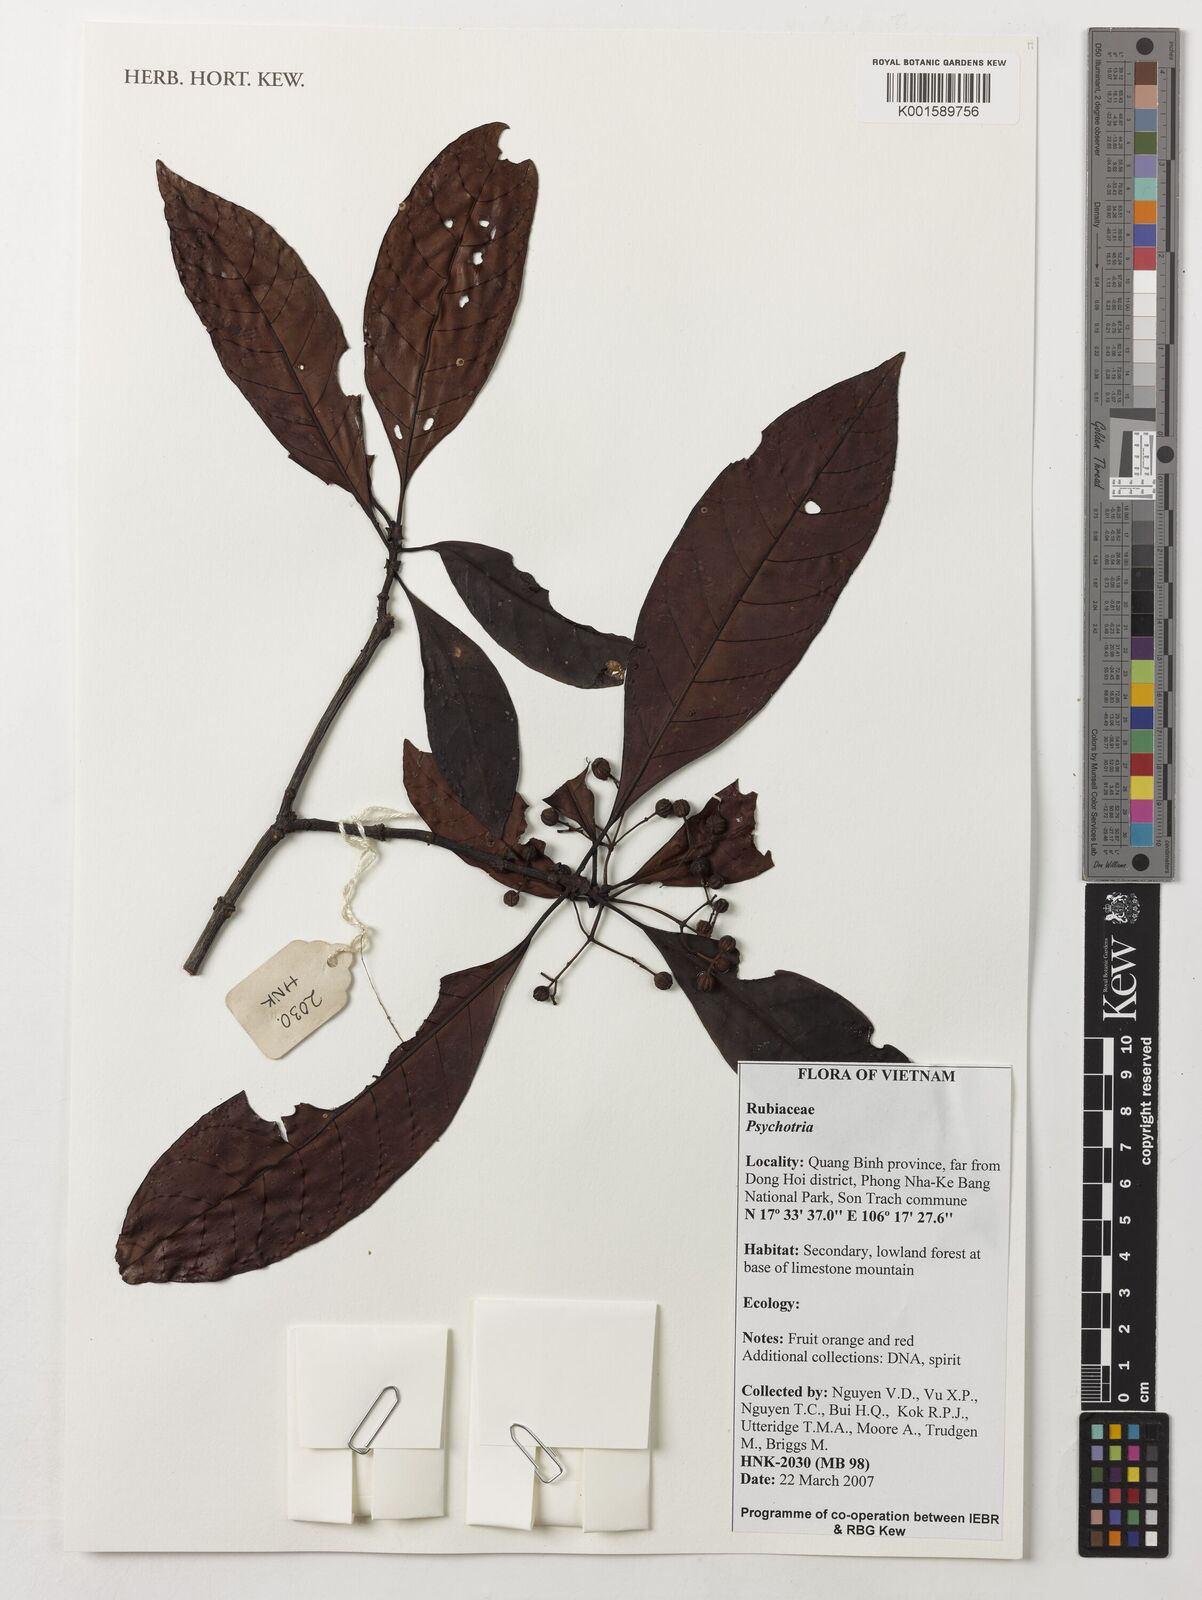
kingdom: Plantae
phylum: Tracheophyta
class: Magnoliopsida
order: Gentianales
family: Rubiaceae
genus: Psychotria
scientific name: Psychotria
